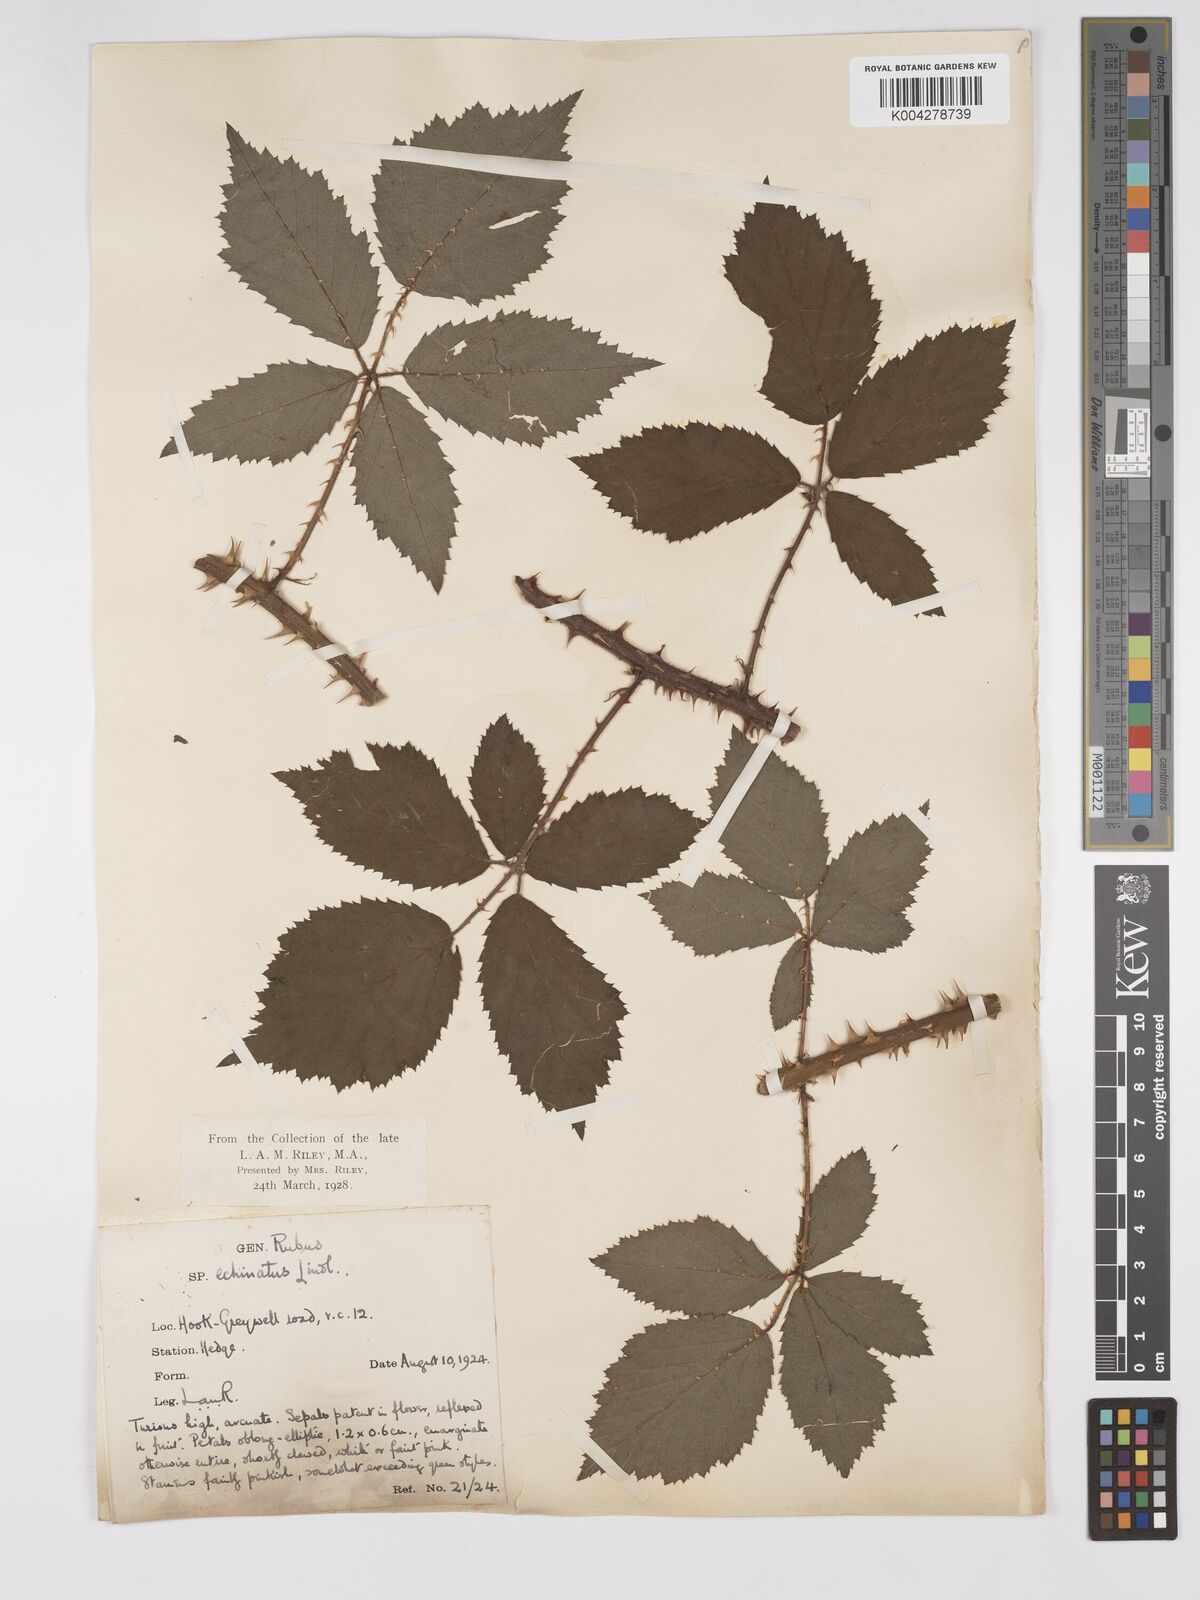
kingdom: Plantae
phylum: Tracheophyta
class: Magnoliopsida
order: Rosales
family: Rosaceae
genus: Rubus
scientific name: Rubus echinatus
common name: Echinate bramble
